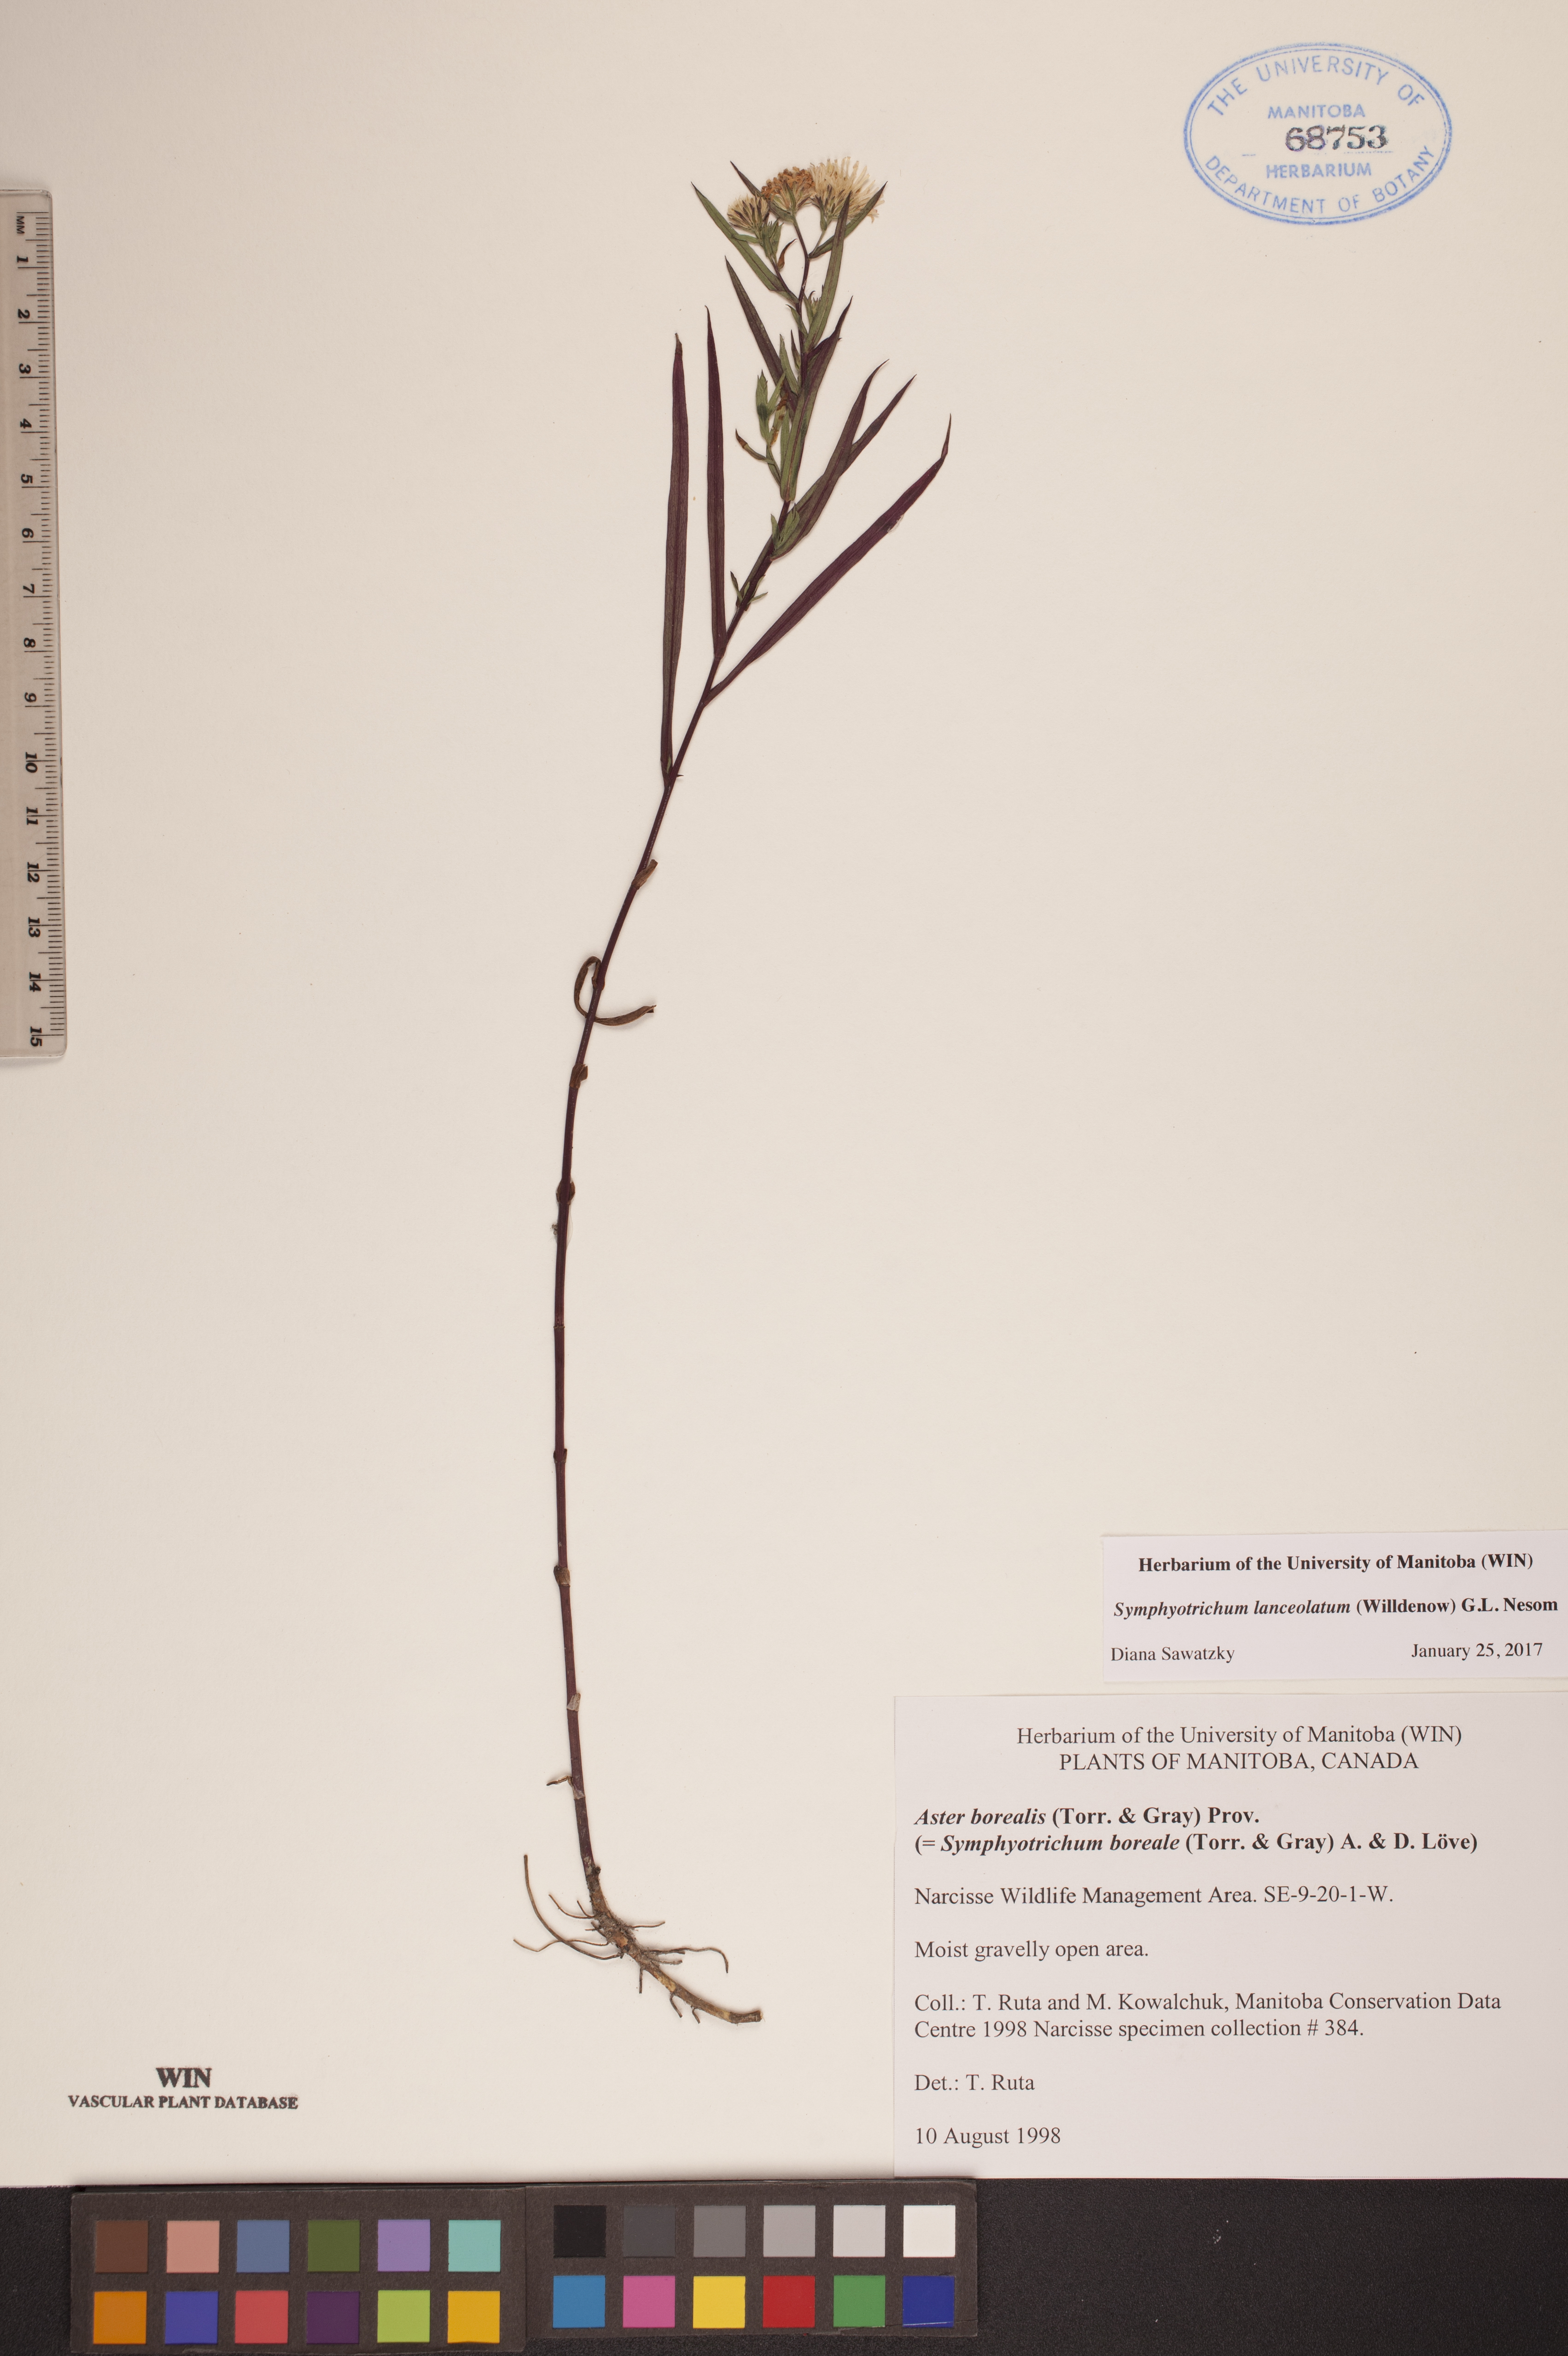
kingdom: Plantae
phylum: Tracheophyta
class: Magnoliopsida
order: Asterales
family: Asteraceae
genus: Symphyotrichum
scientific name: Symphyotrichum lanceolatum
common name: Panicled aster
